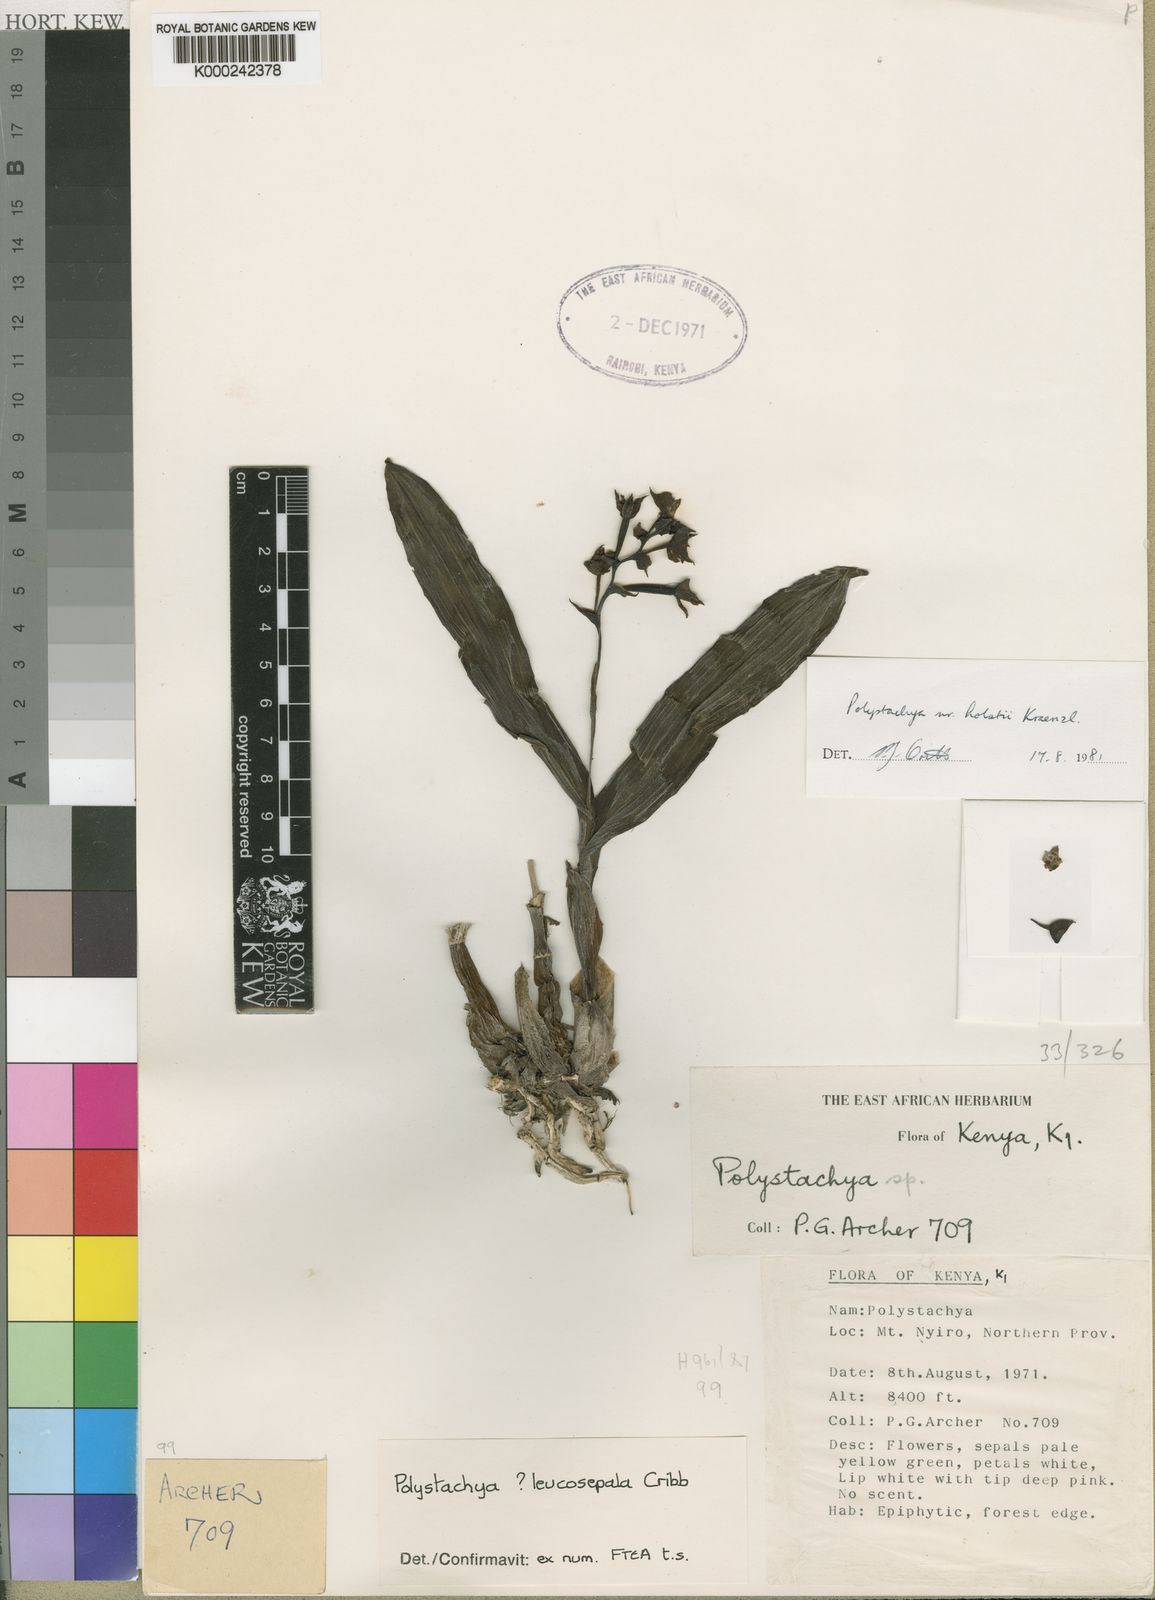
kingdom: Plantae
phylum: Tracheophyta
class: Liliopsida
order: Asparagales
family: Orchidaceae
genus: Polystachya
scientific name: Polystachya piersii
